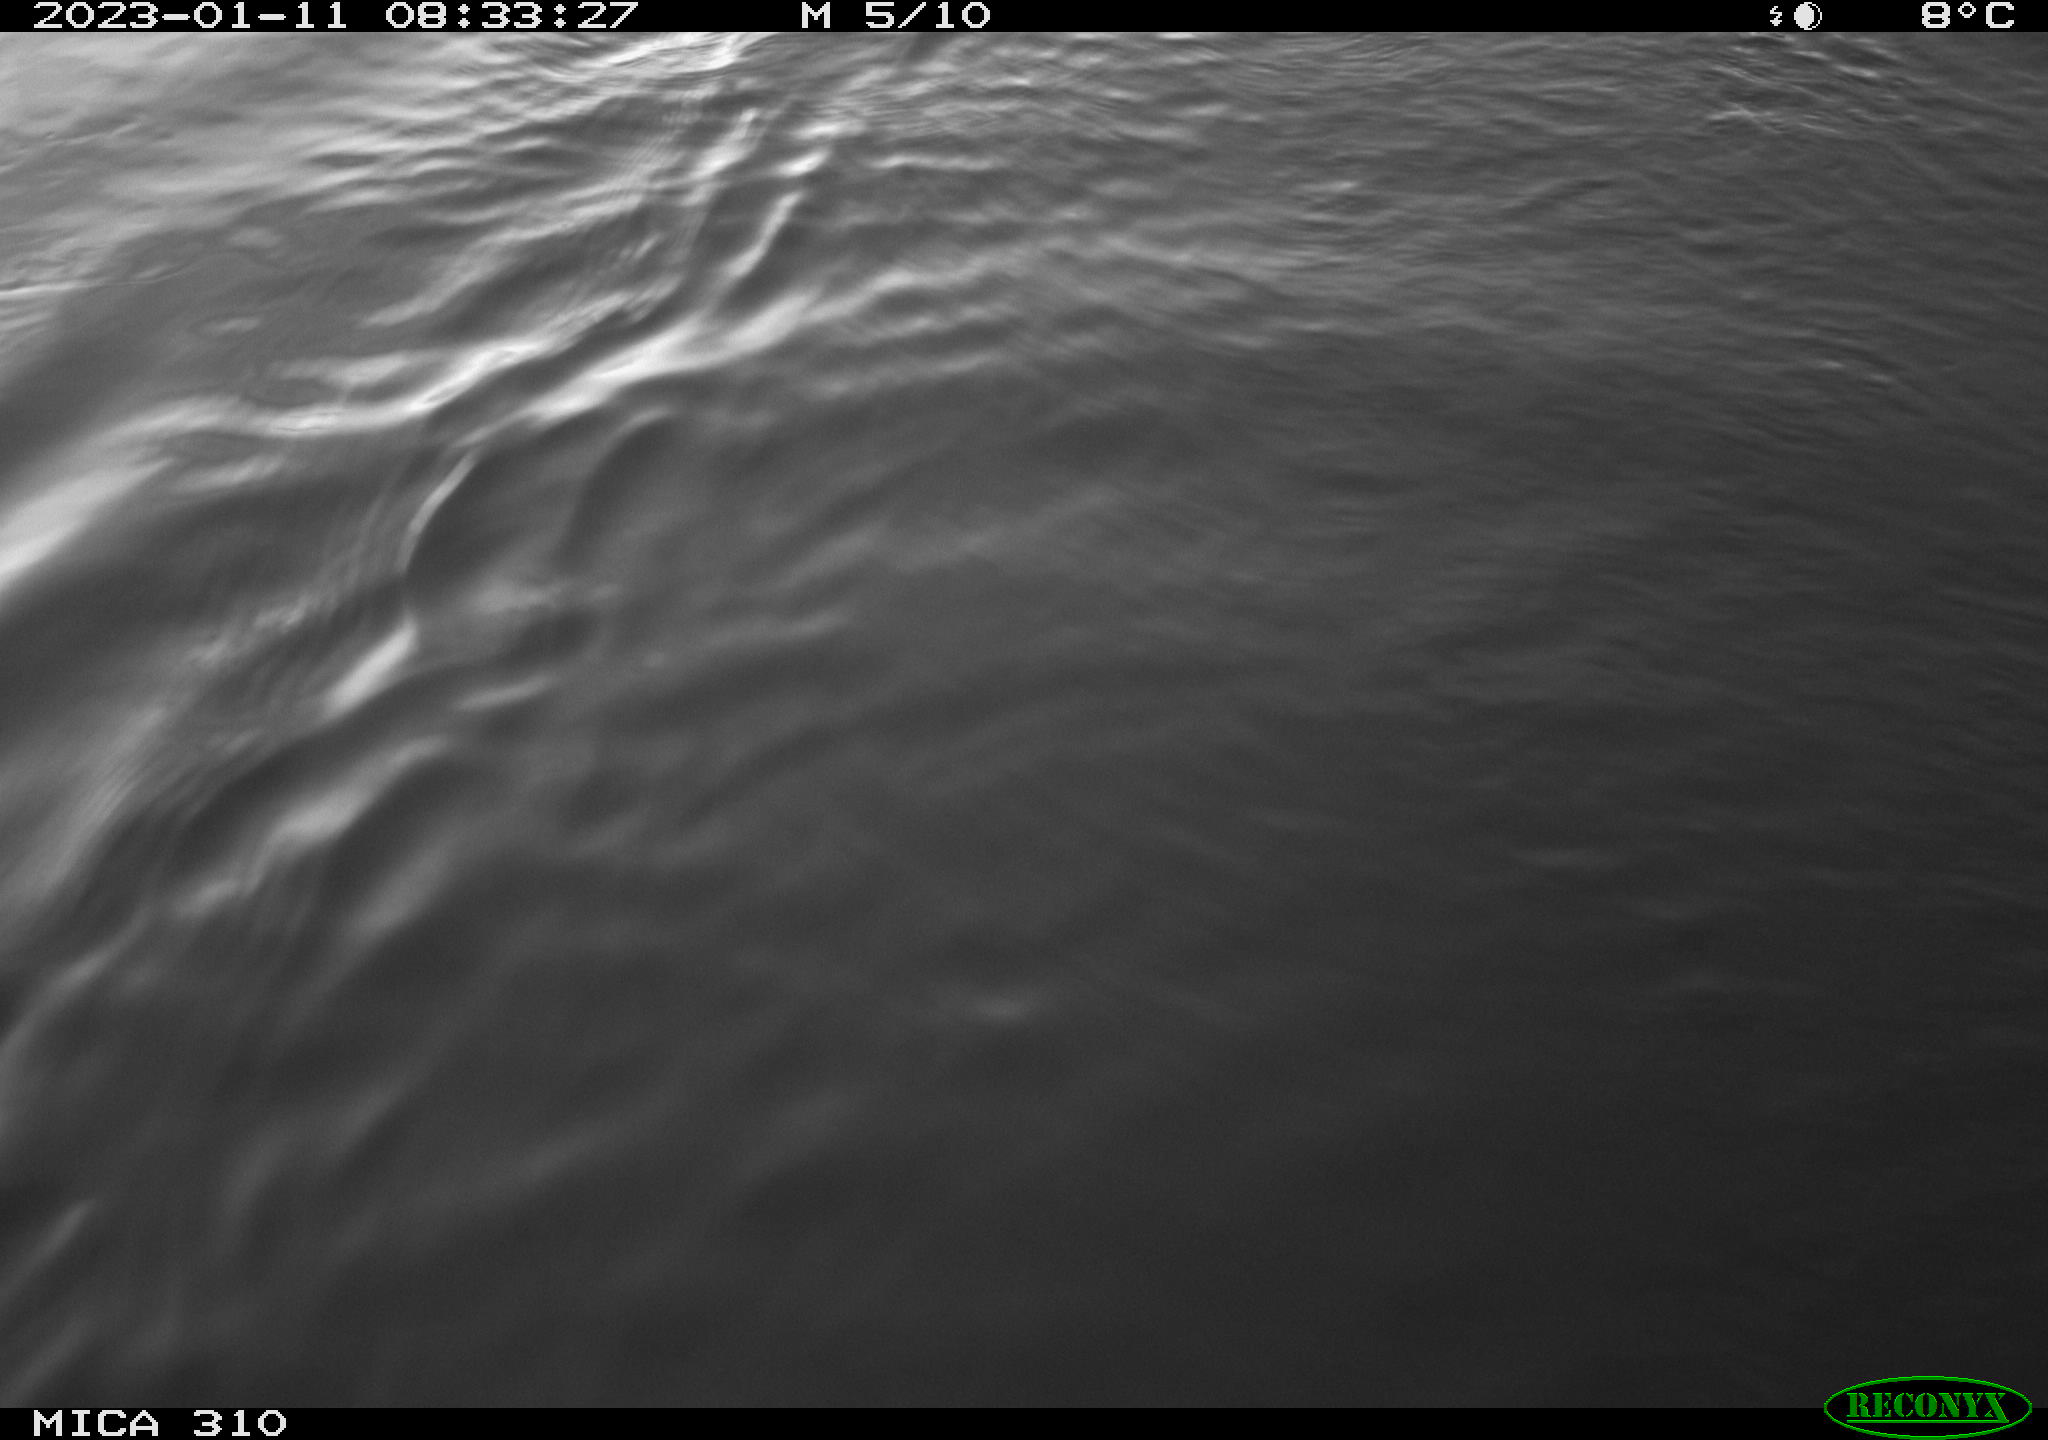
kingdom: Animalia
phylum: Chordata
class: Aves
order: Pelecaniformes
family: Ardeidae
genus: Ardea
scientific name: Ardea cinerea
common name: Grey heron
